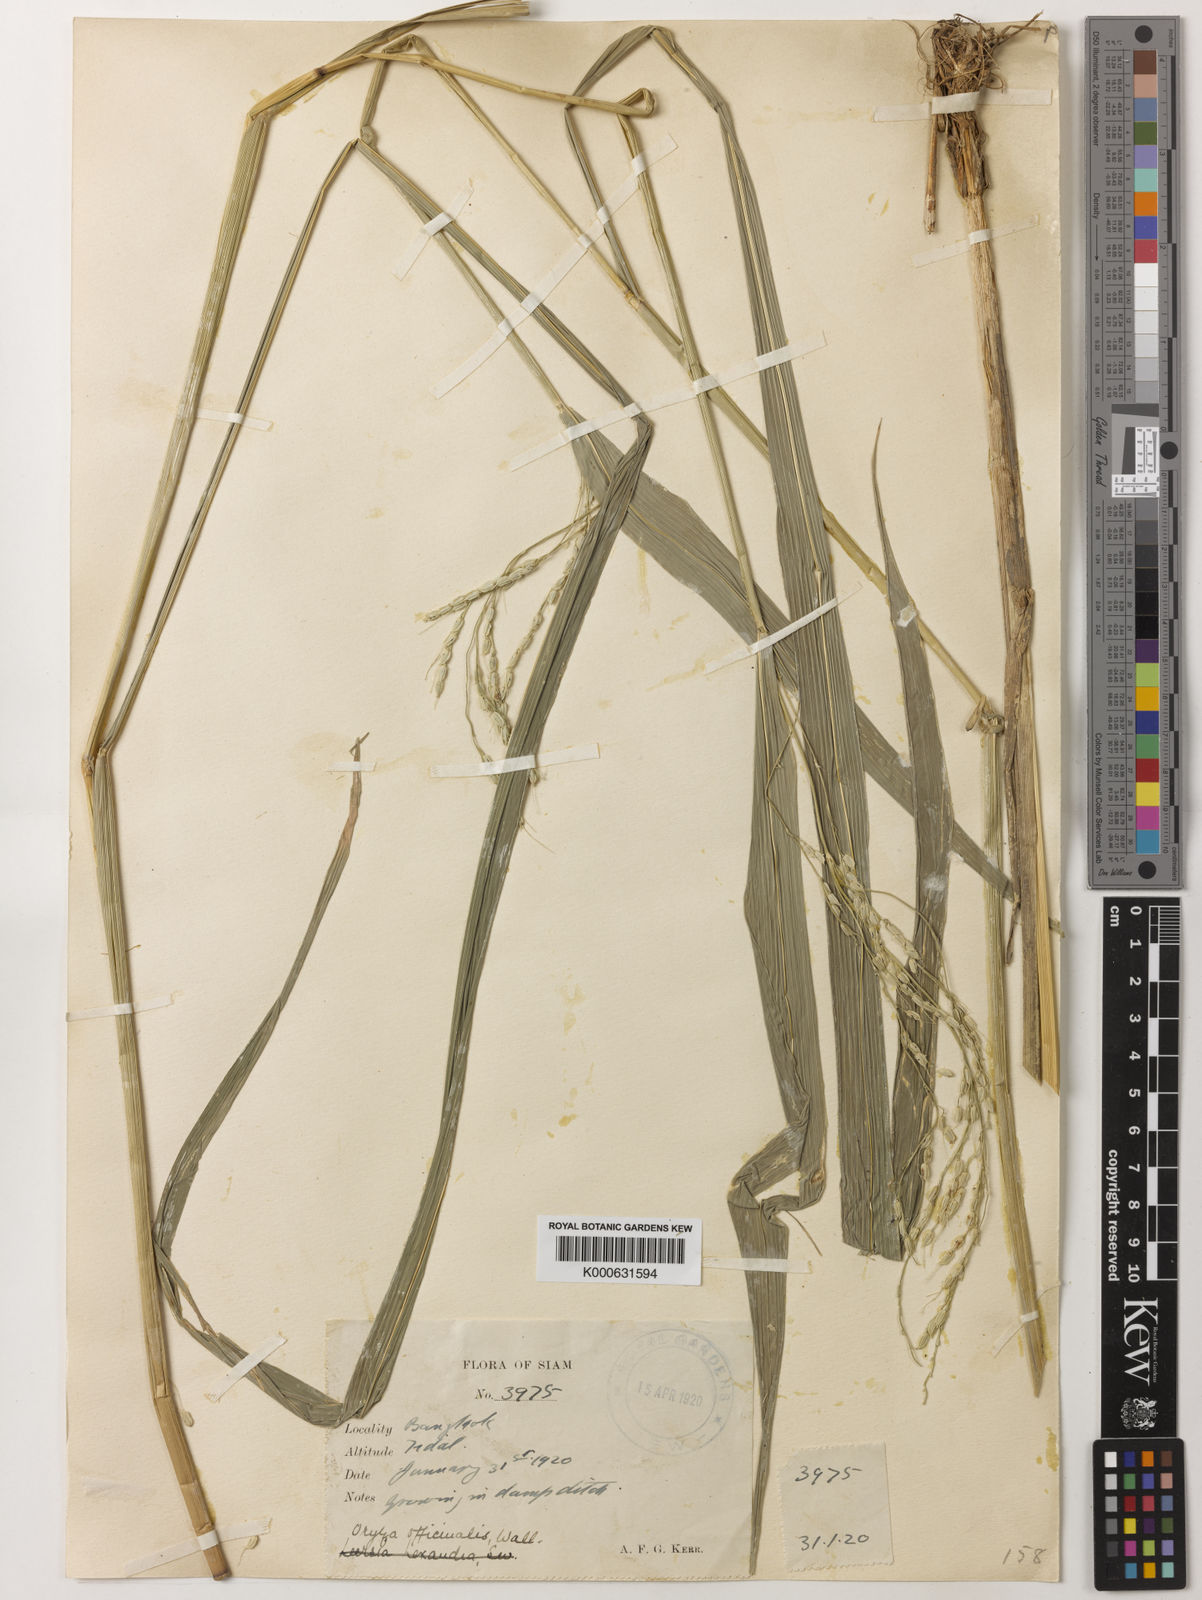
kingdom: Plantae
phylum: Tracheophyta
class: Liliopsida
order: Poales
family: Poaceae
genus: Oryza
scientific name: Oryza minuta
